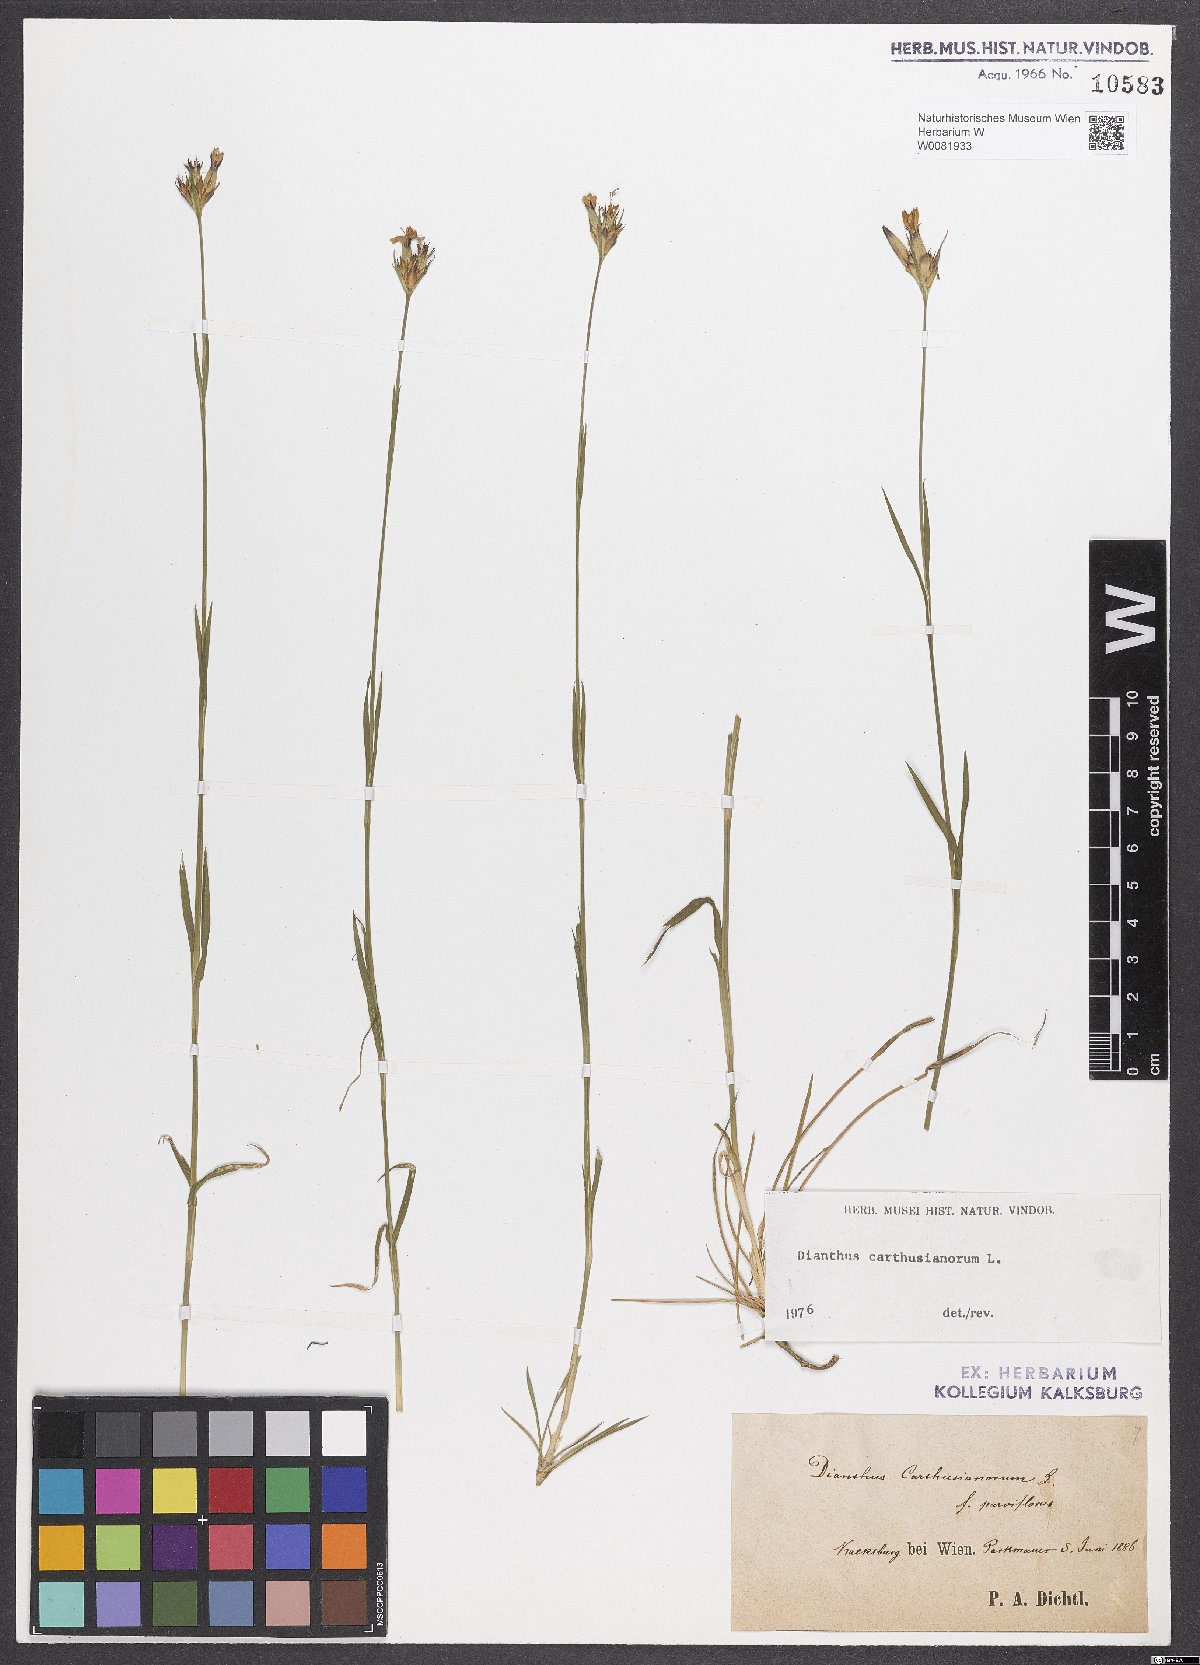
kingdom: Plantae
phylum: Tracheophyta
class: Magnoliopsida
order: Caryophyllales
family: Caryophyllaceae
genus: Dianthus
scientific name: Dianthus carthusianorum
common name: Carthusian pink
